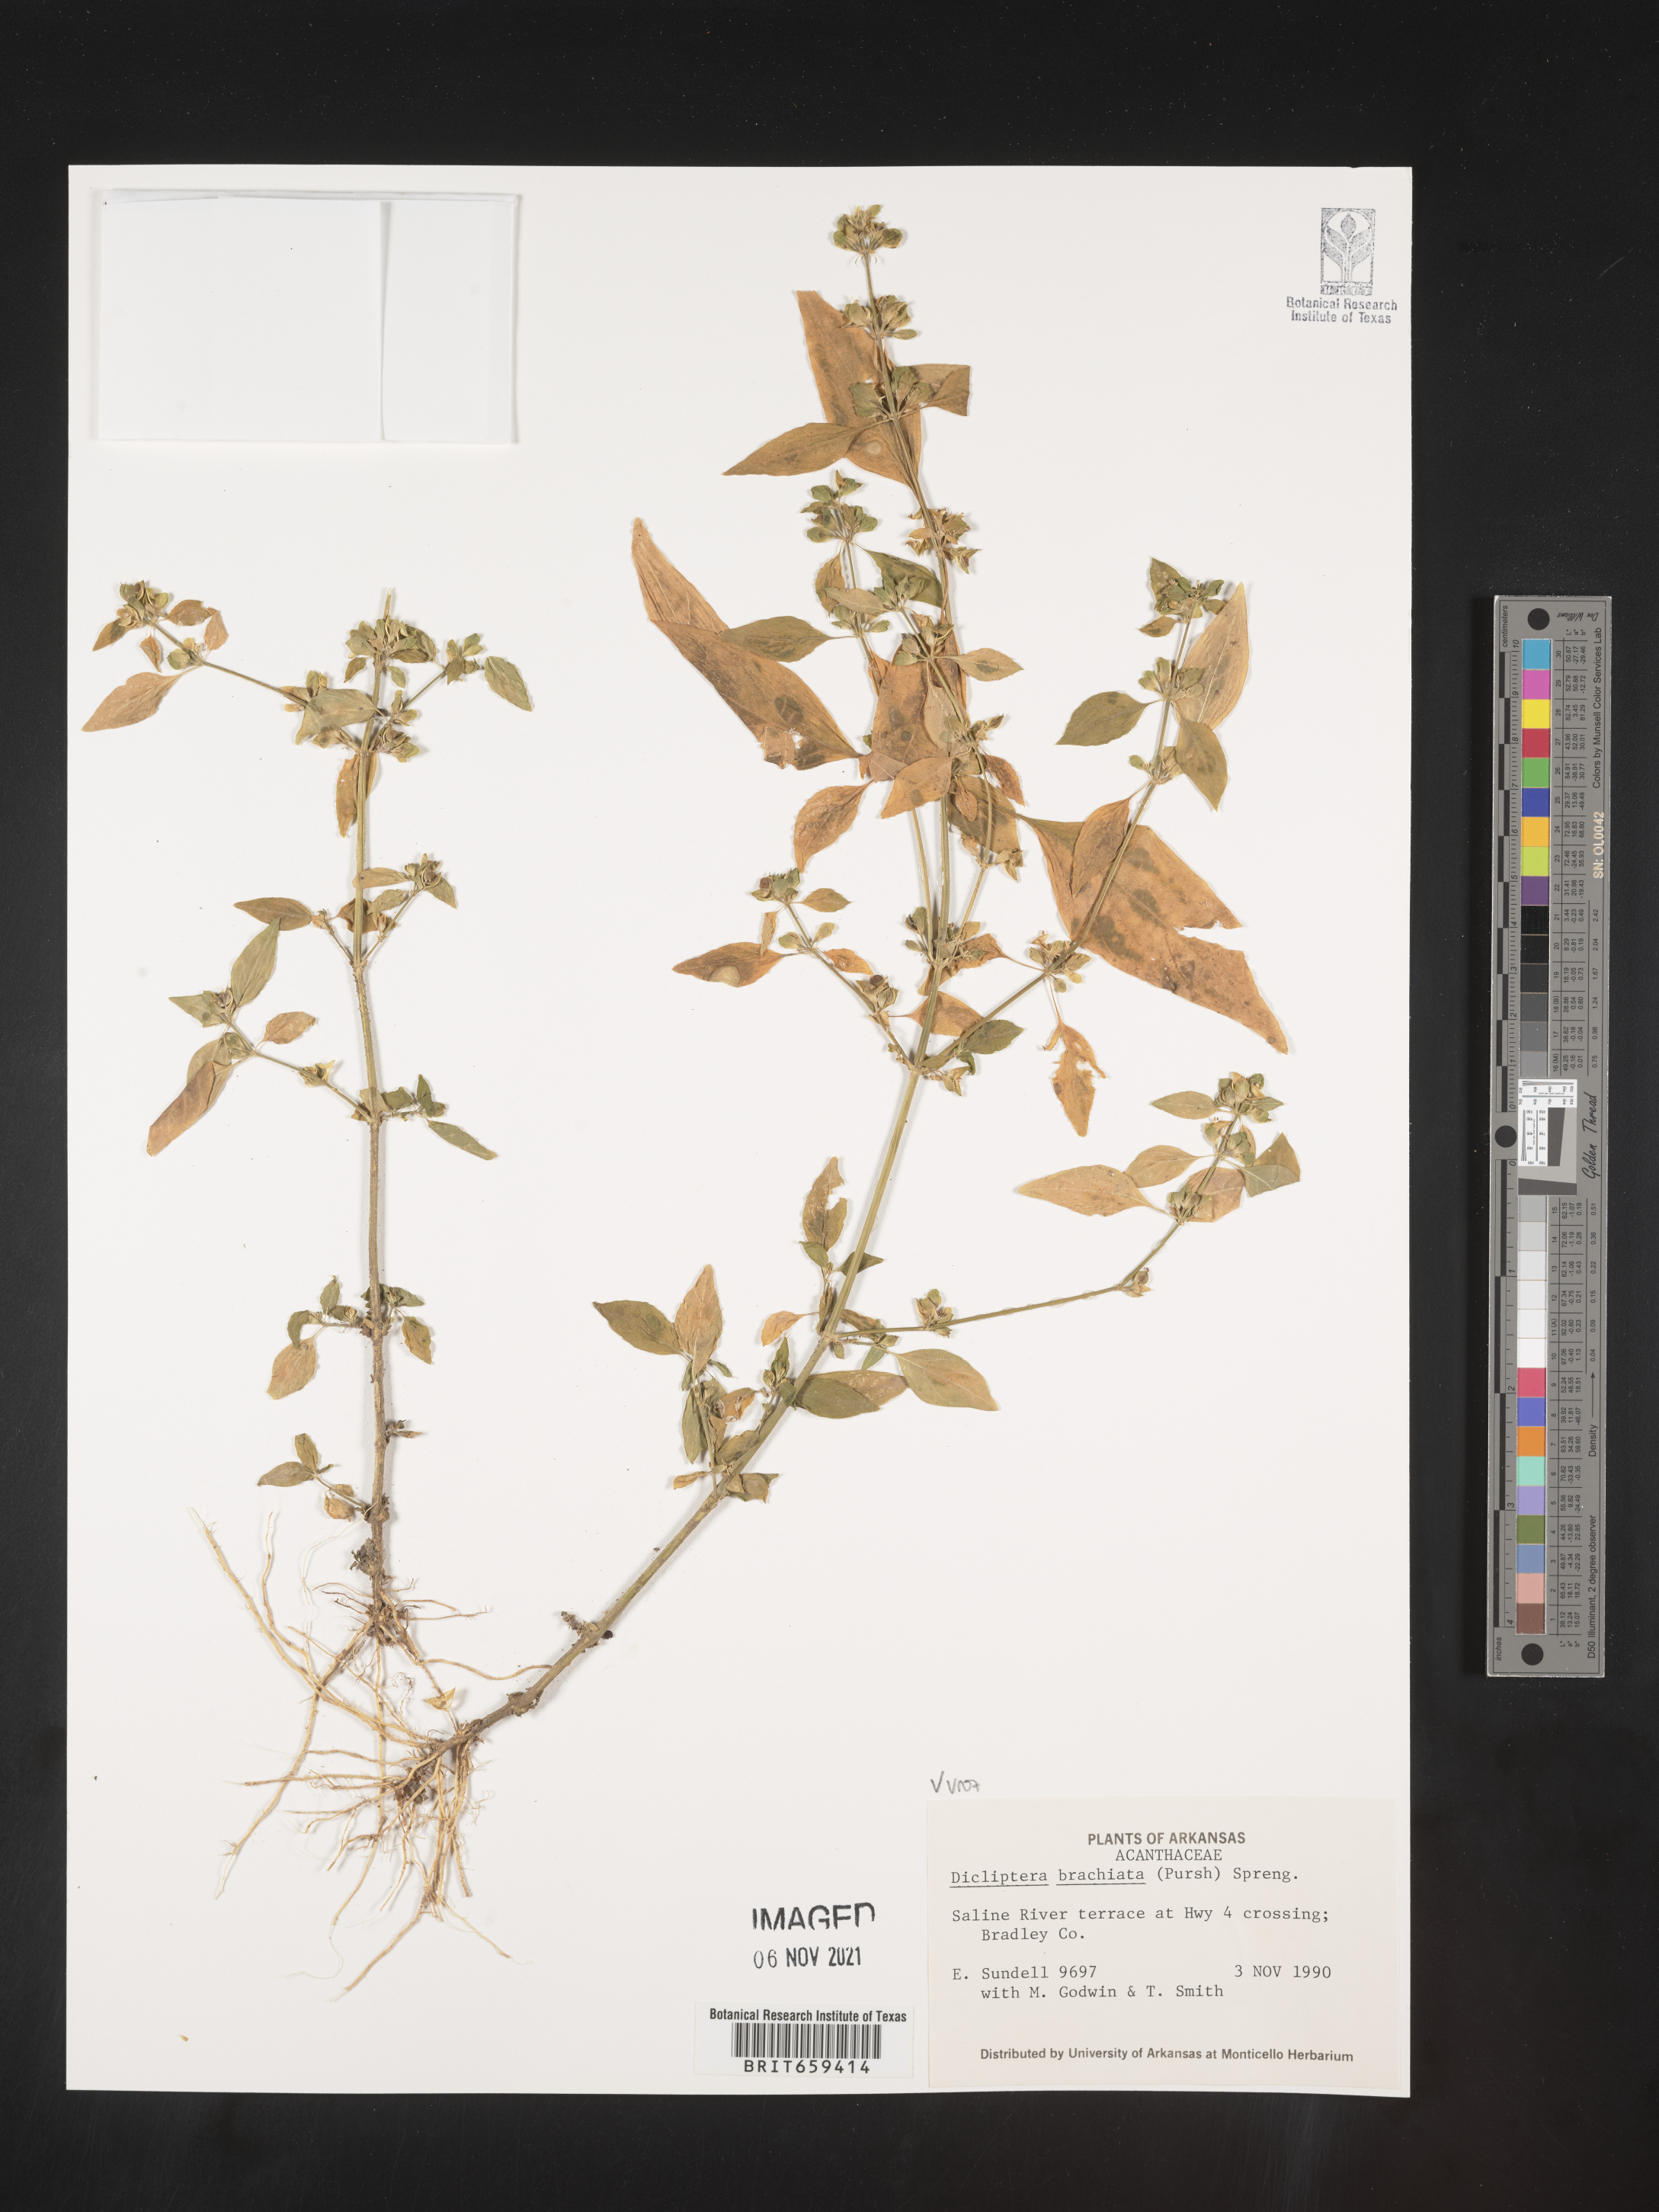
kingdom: Plantae
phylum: Tracheophyta
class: Magnoliopsida
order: Lamiales
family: Acanthaceae
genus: Dicliptera
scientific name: Dicliptera brachiata
